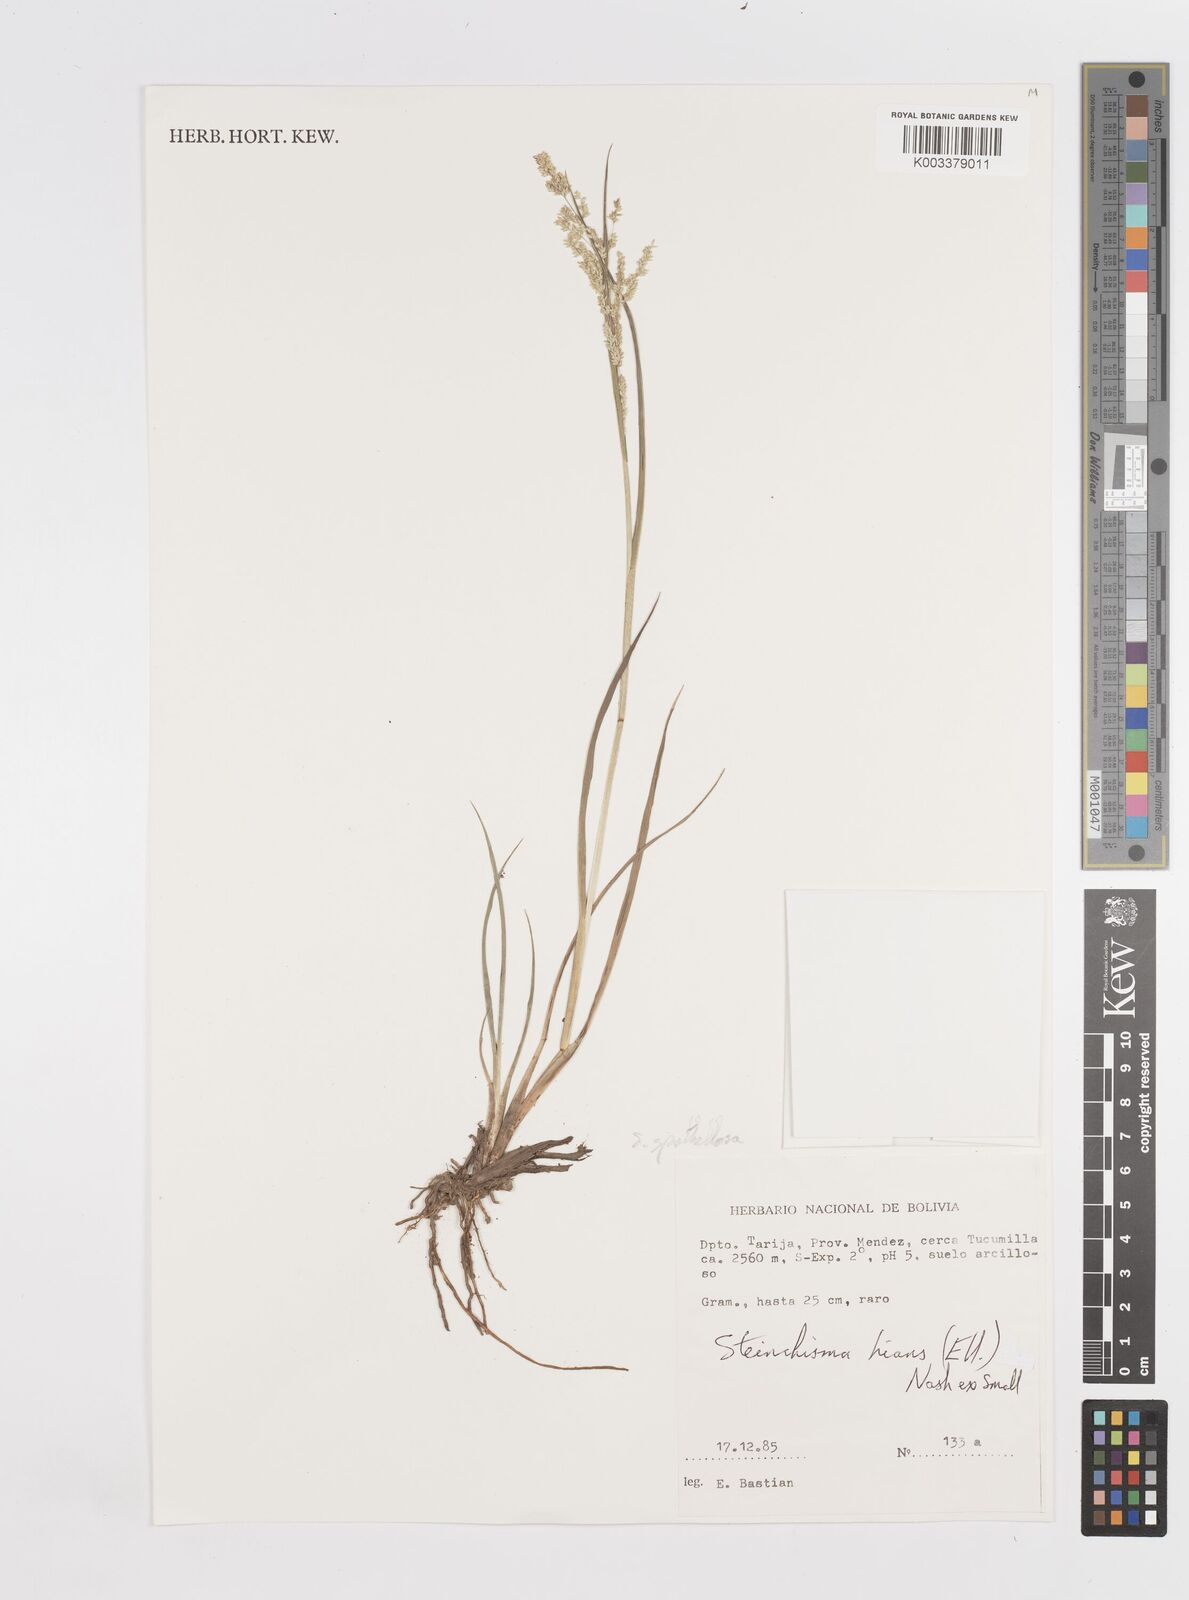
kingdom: Plantae
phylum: Tracheophyta
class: Liliopsida
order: Poales
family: Poaceae
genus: Steinchisma
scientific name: Steinchisma spathellosum
